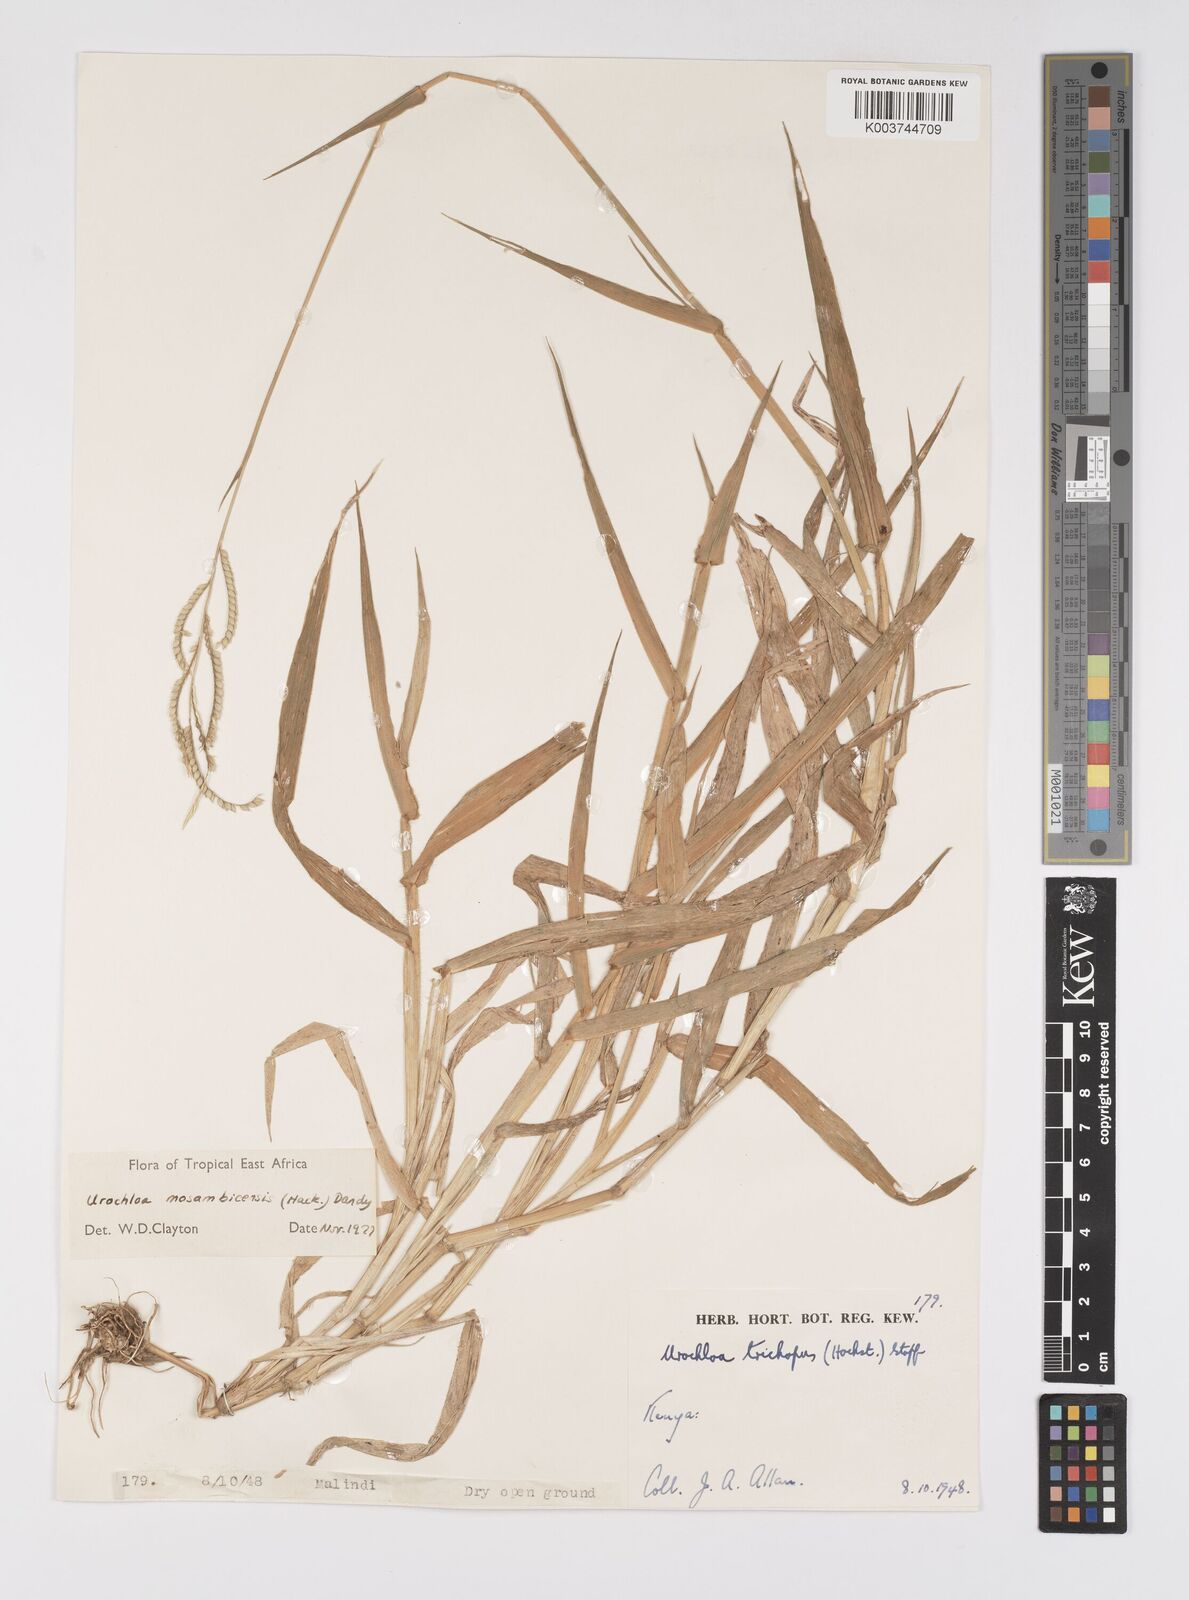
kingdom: Plantae
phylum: Tracheophyta
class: Liliopsida
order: Poales
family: Poaceae
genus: Urochloa
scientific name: Urochloa trichopus
